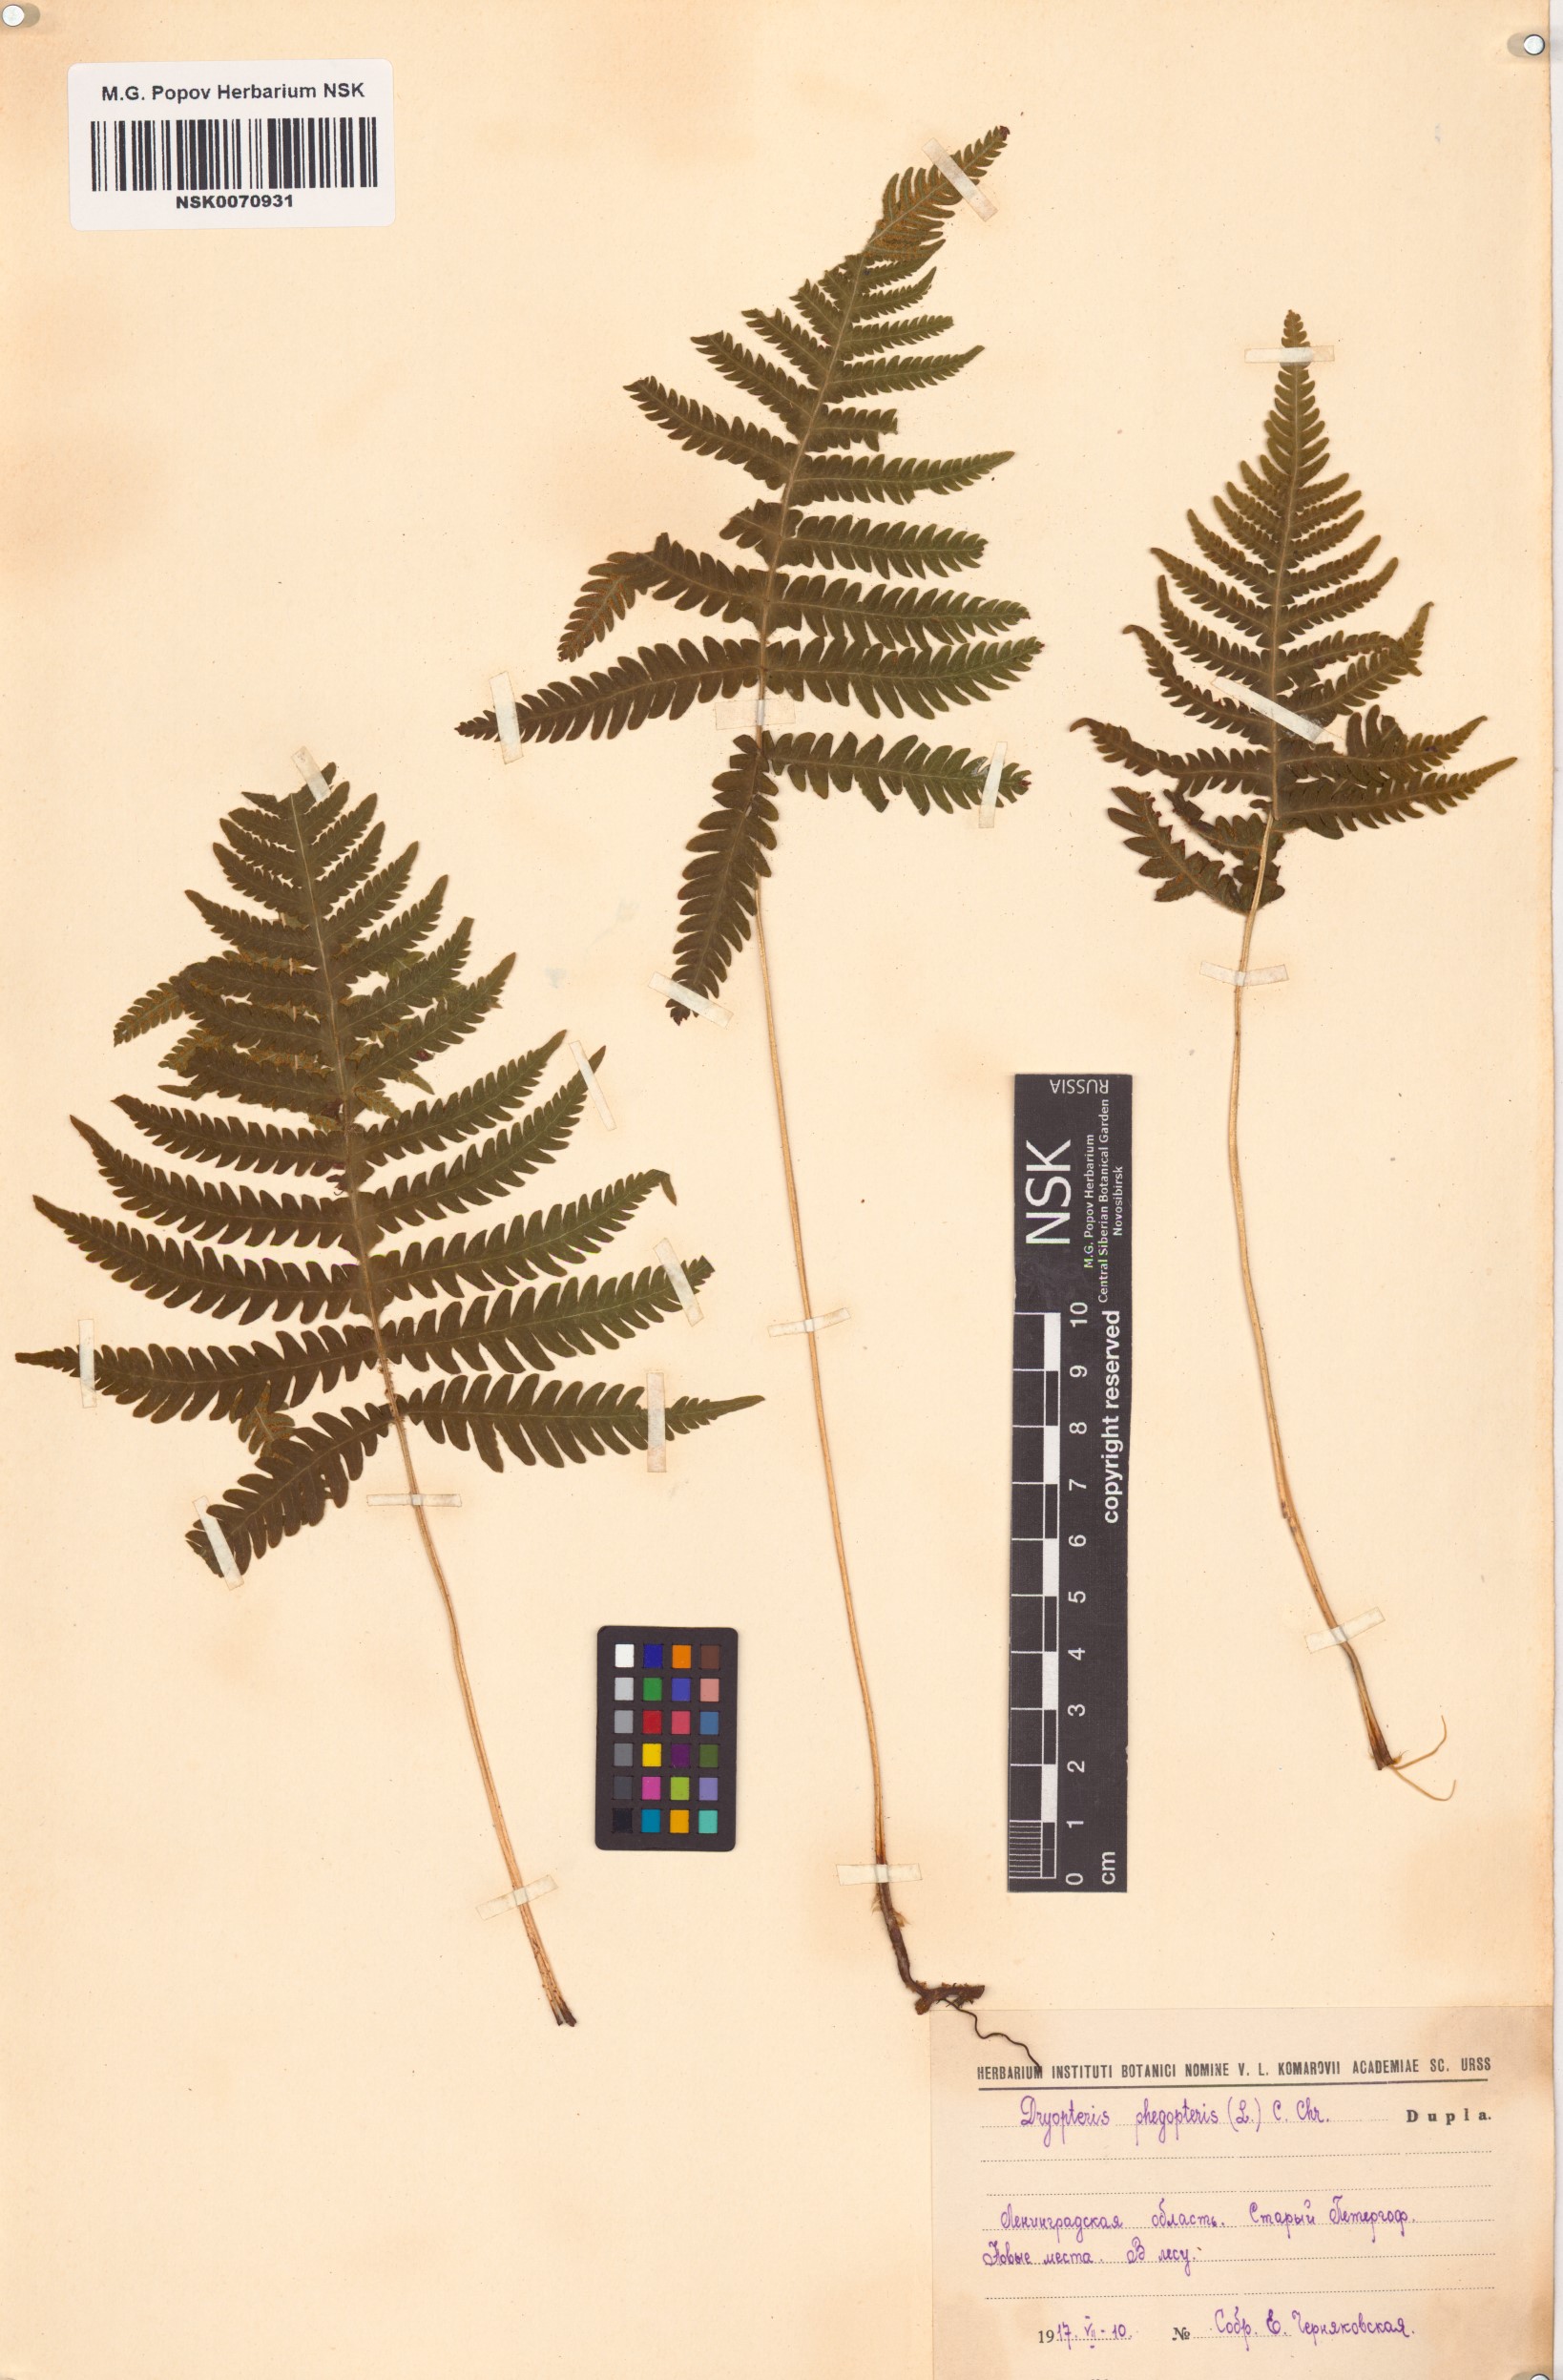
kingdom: Plantae
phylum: Tracheophyta
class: Polypodiopsida
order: Polypodiales
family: Thelypteridaceae
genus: Phegopteris
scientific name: Phegopteris connectilis
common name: Beech fern
